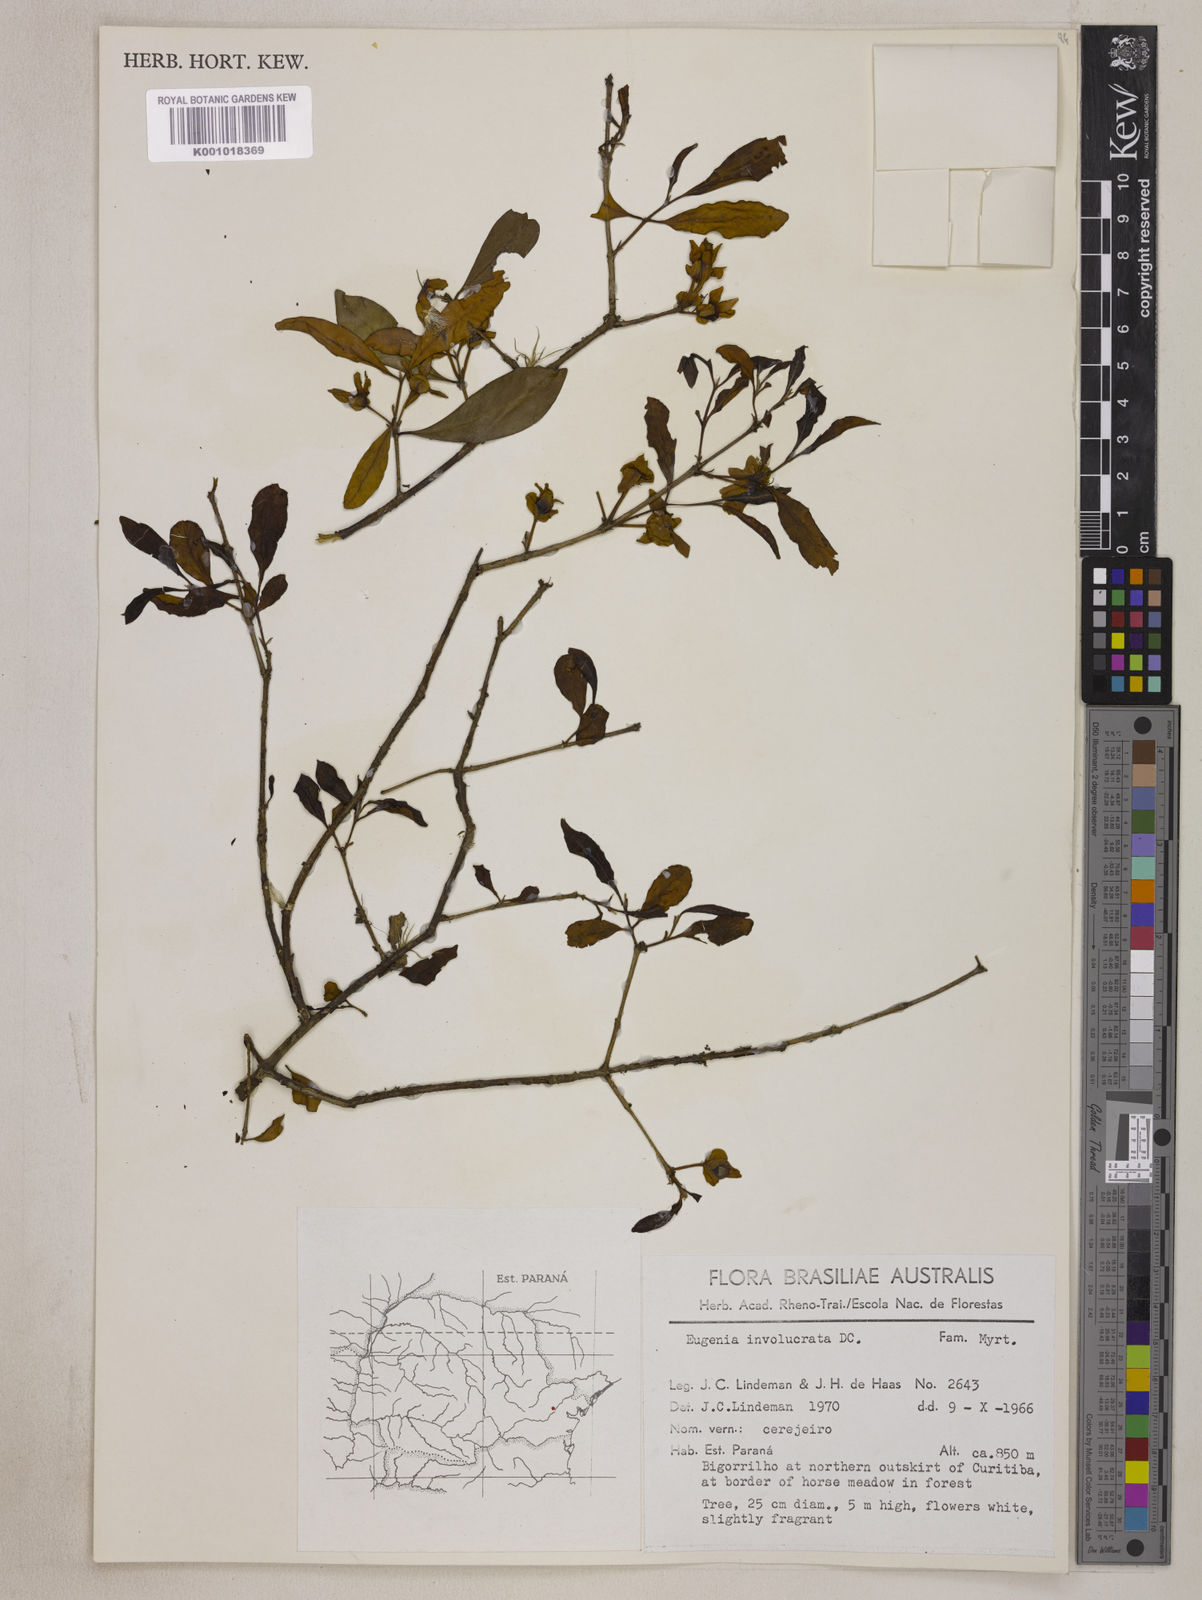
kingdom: Plantae
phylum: Tracheophyta
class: Magnoliopsida
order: Myrtales
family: Myrtaceae
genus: Eugenia
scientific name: Eugenia involucrata
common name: Cherry-of-the-rio grande
